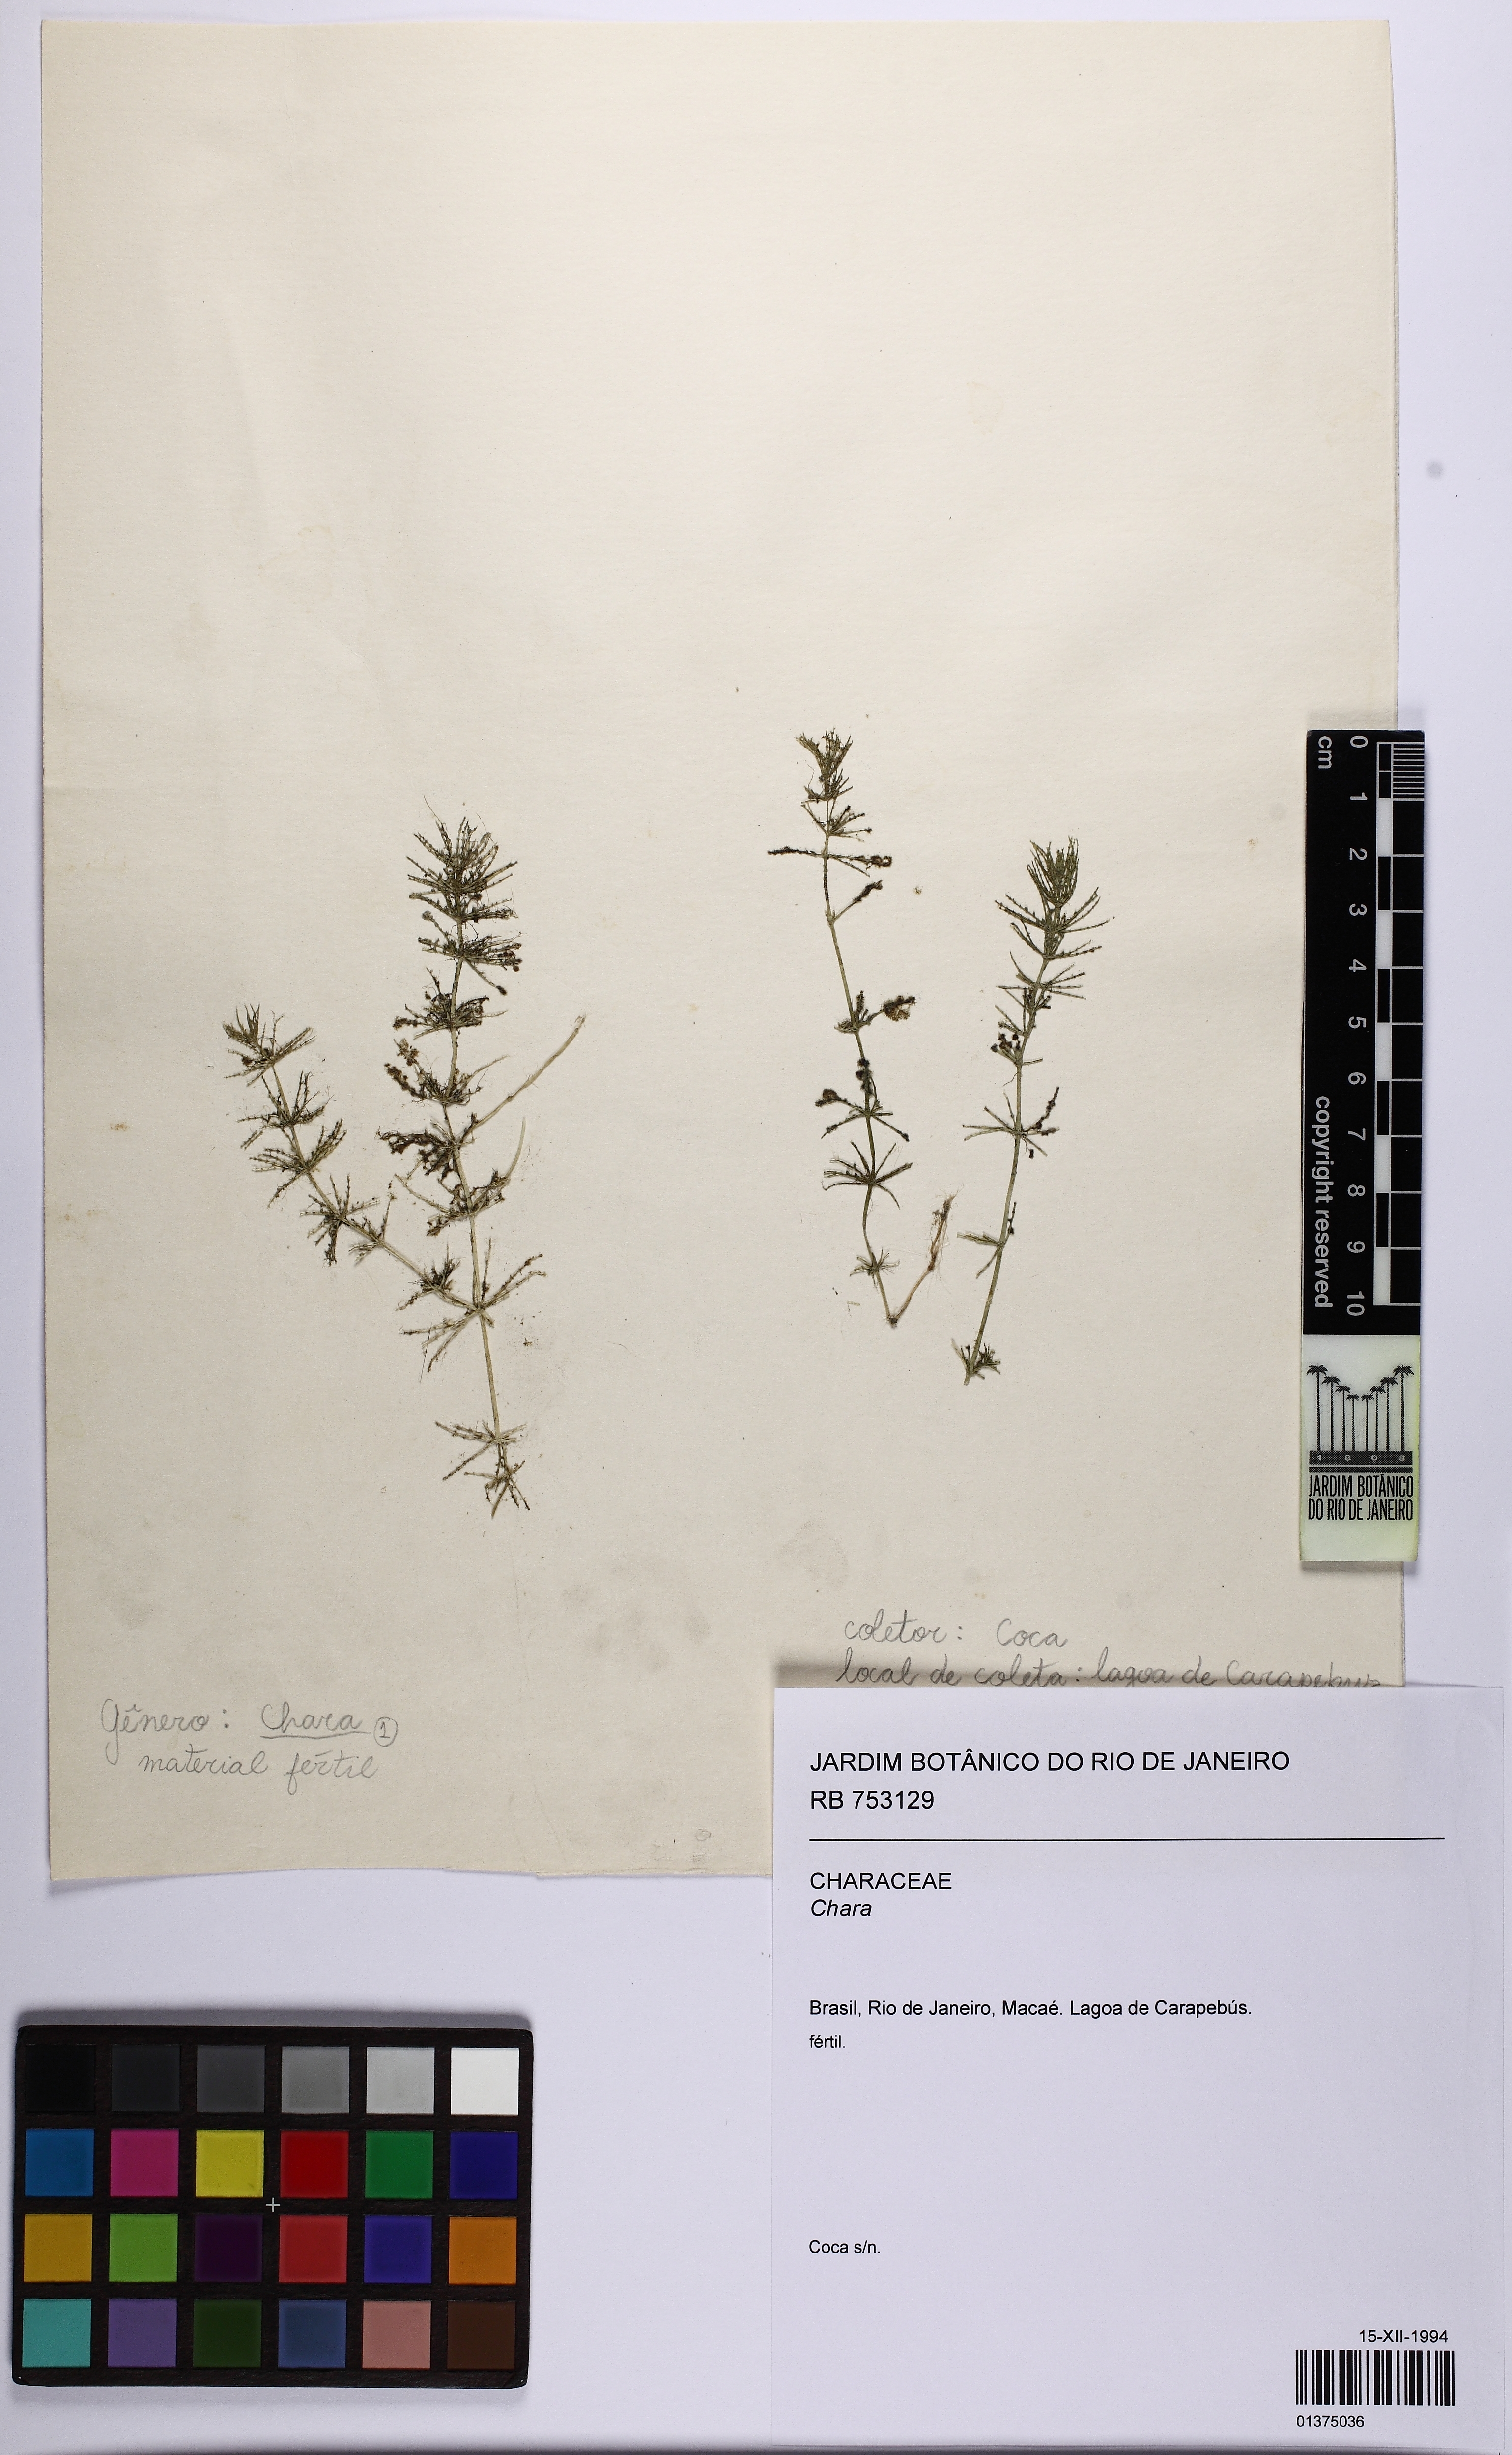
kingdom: Plantae
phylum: Charophyta
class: Charophyceae
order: Charales
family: Characeae
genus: Chara
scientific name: Chara
